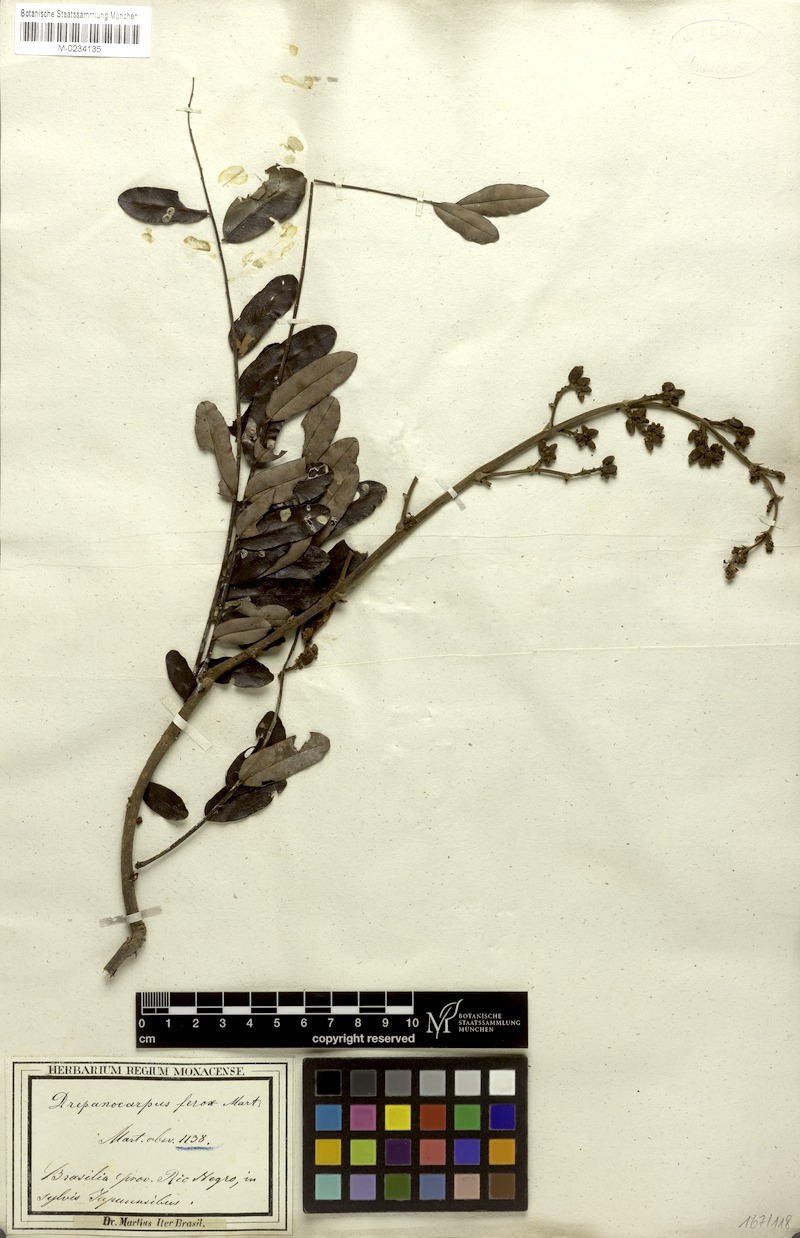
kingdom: Plantae
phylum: Tracheophyta
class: Magnoliopsida
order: Fabales
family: Fabaceae
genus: Machaerium
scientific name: Machaerium ferox
